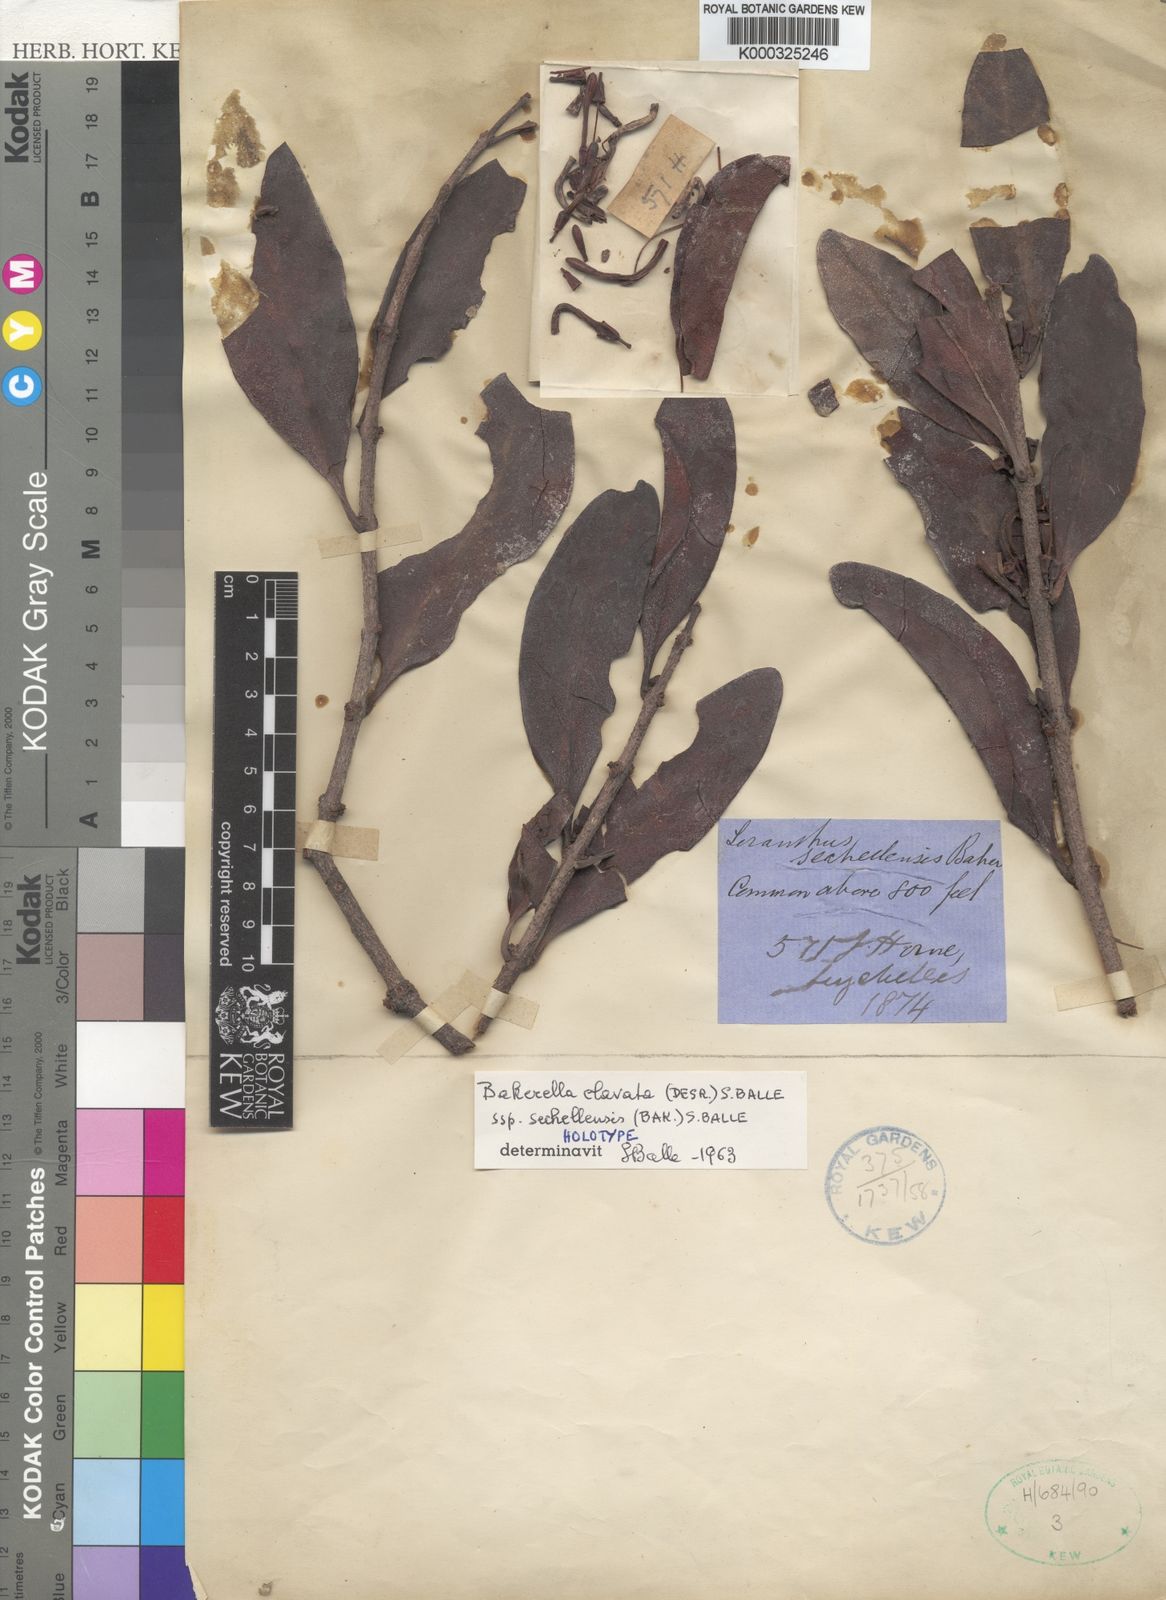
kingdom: Plantae
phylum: Tracheophyta
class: Magnoliopsida
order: Santalales
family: Loranthaceae
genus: Bakerella
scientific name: Bakerella clavata
